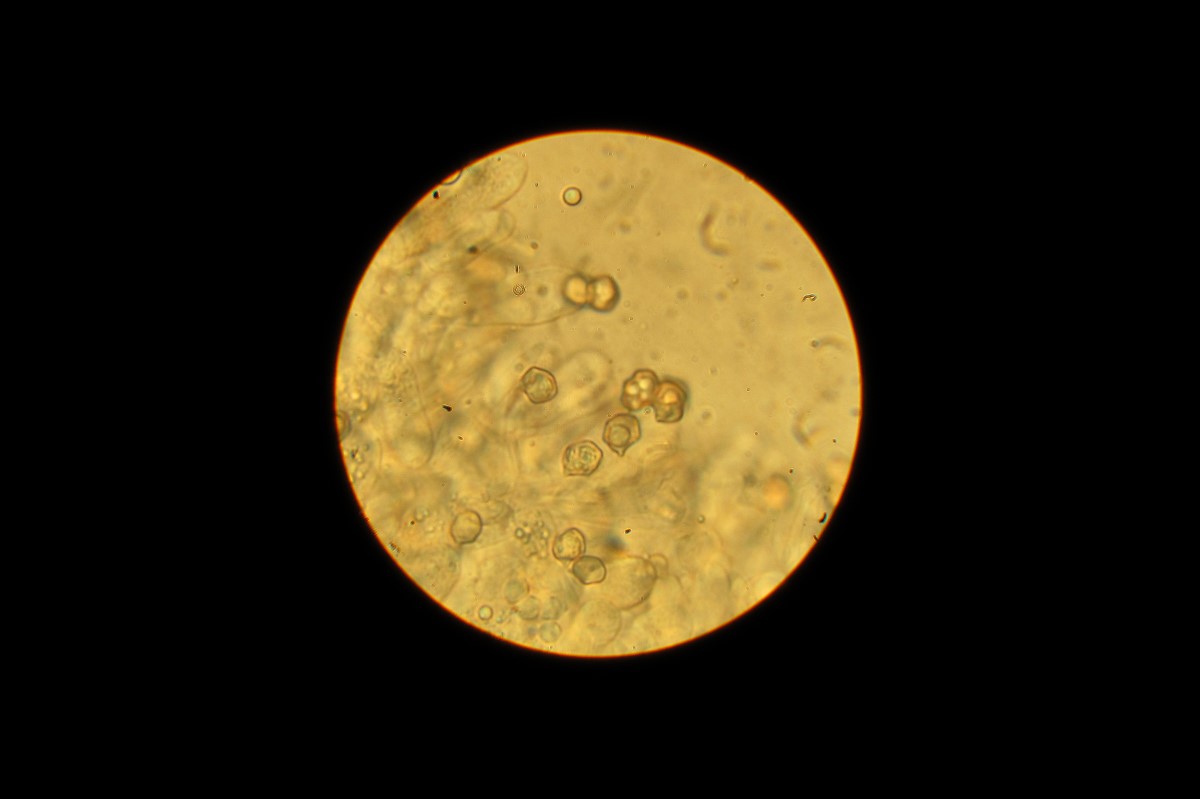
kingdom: Fungi
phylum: Basidiomycota
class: Agaricomycetes
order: Agaricales
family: Entolomataceae
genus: Entoloma
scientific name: Entoloma sordidulum
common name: smudsig rødblad
